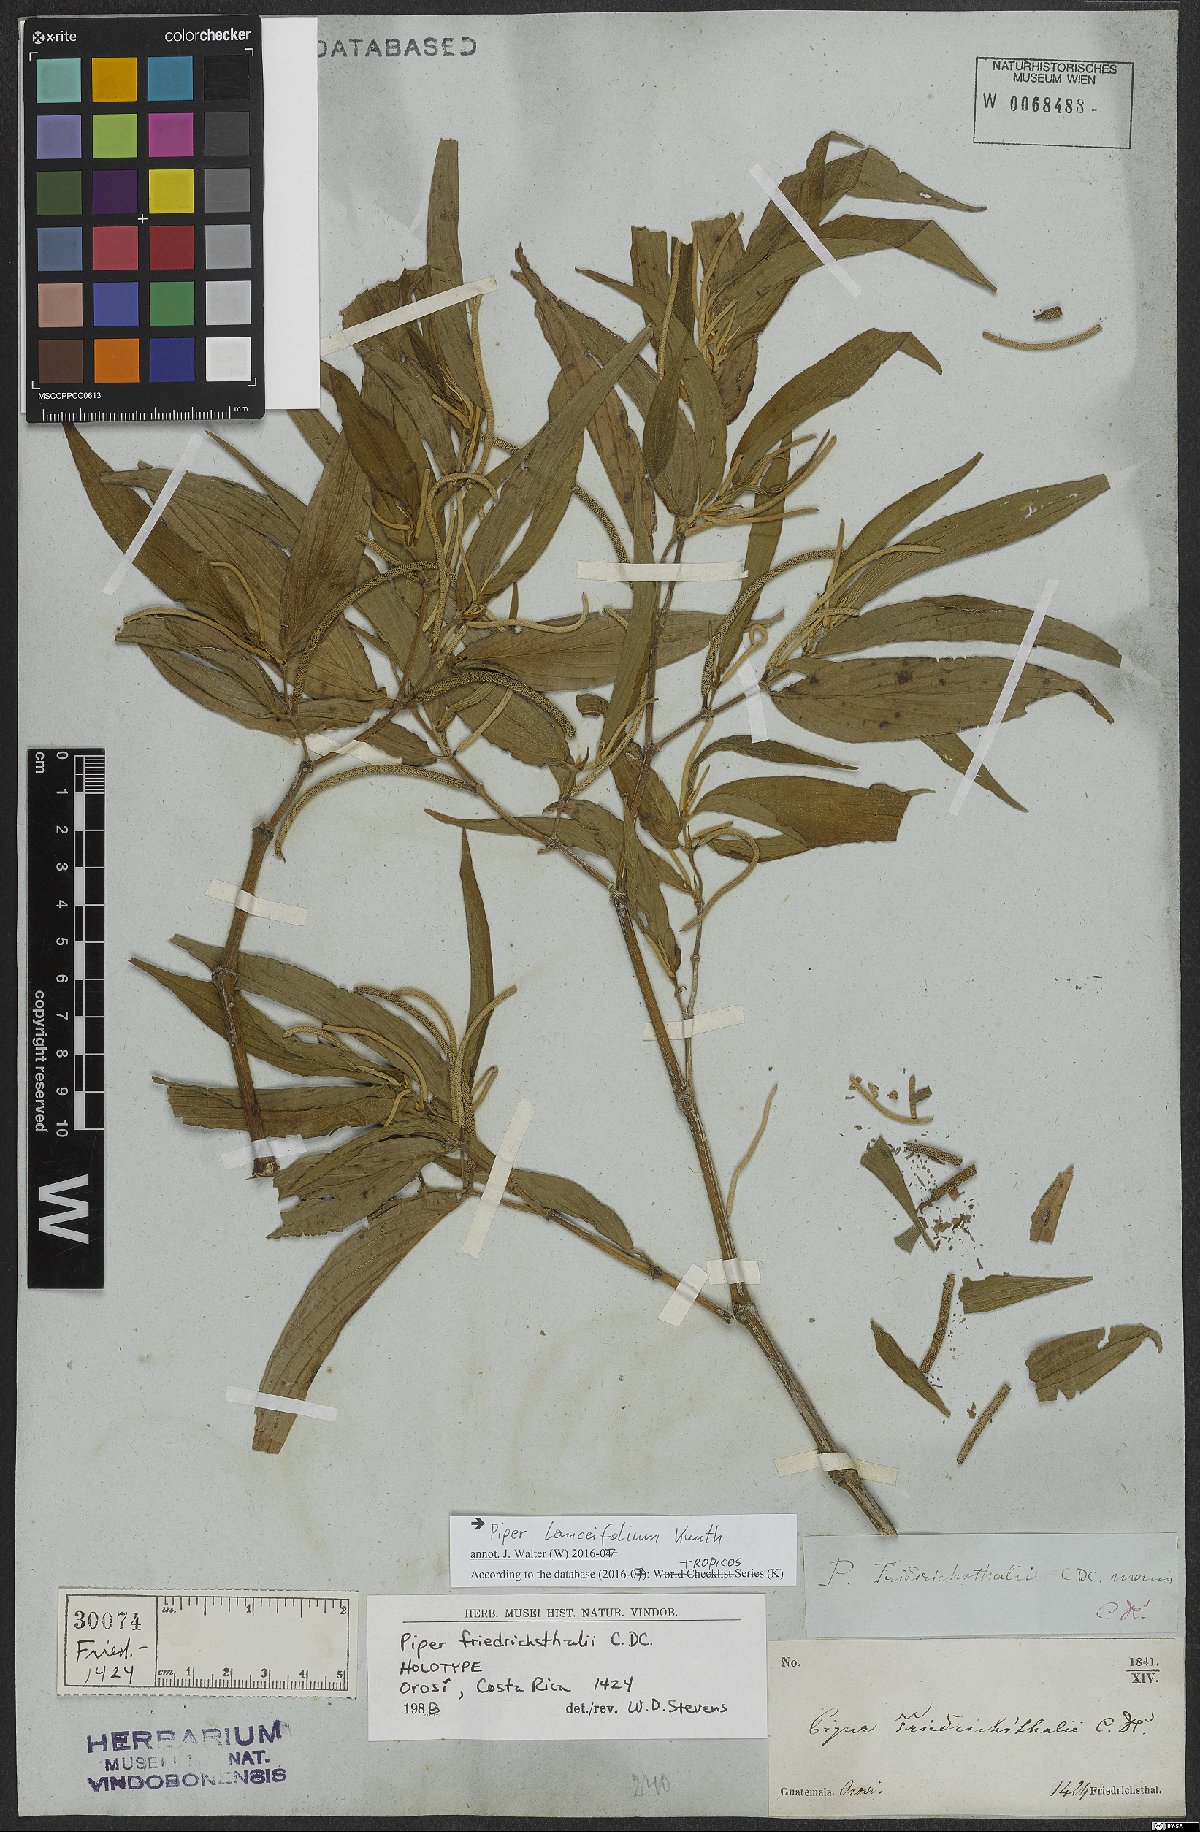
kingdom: Plantae
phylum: Tracheophyta
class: Magnoliopsida
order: Piperales
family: Piperaceae
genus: Piper
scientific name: Piper lanceifolium
